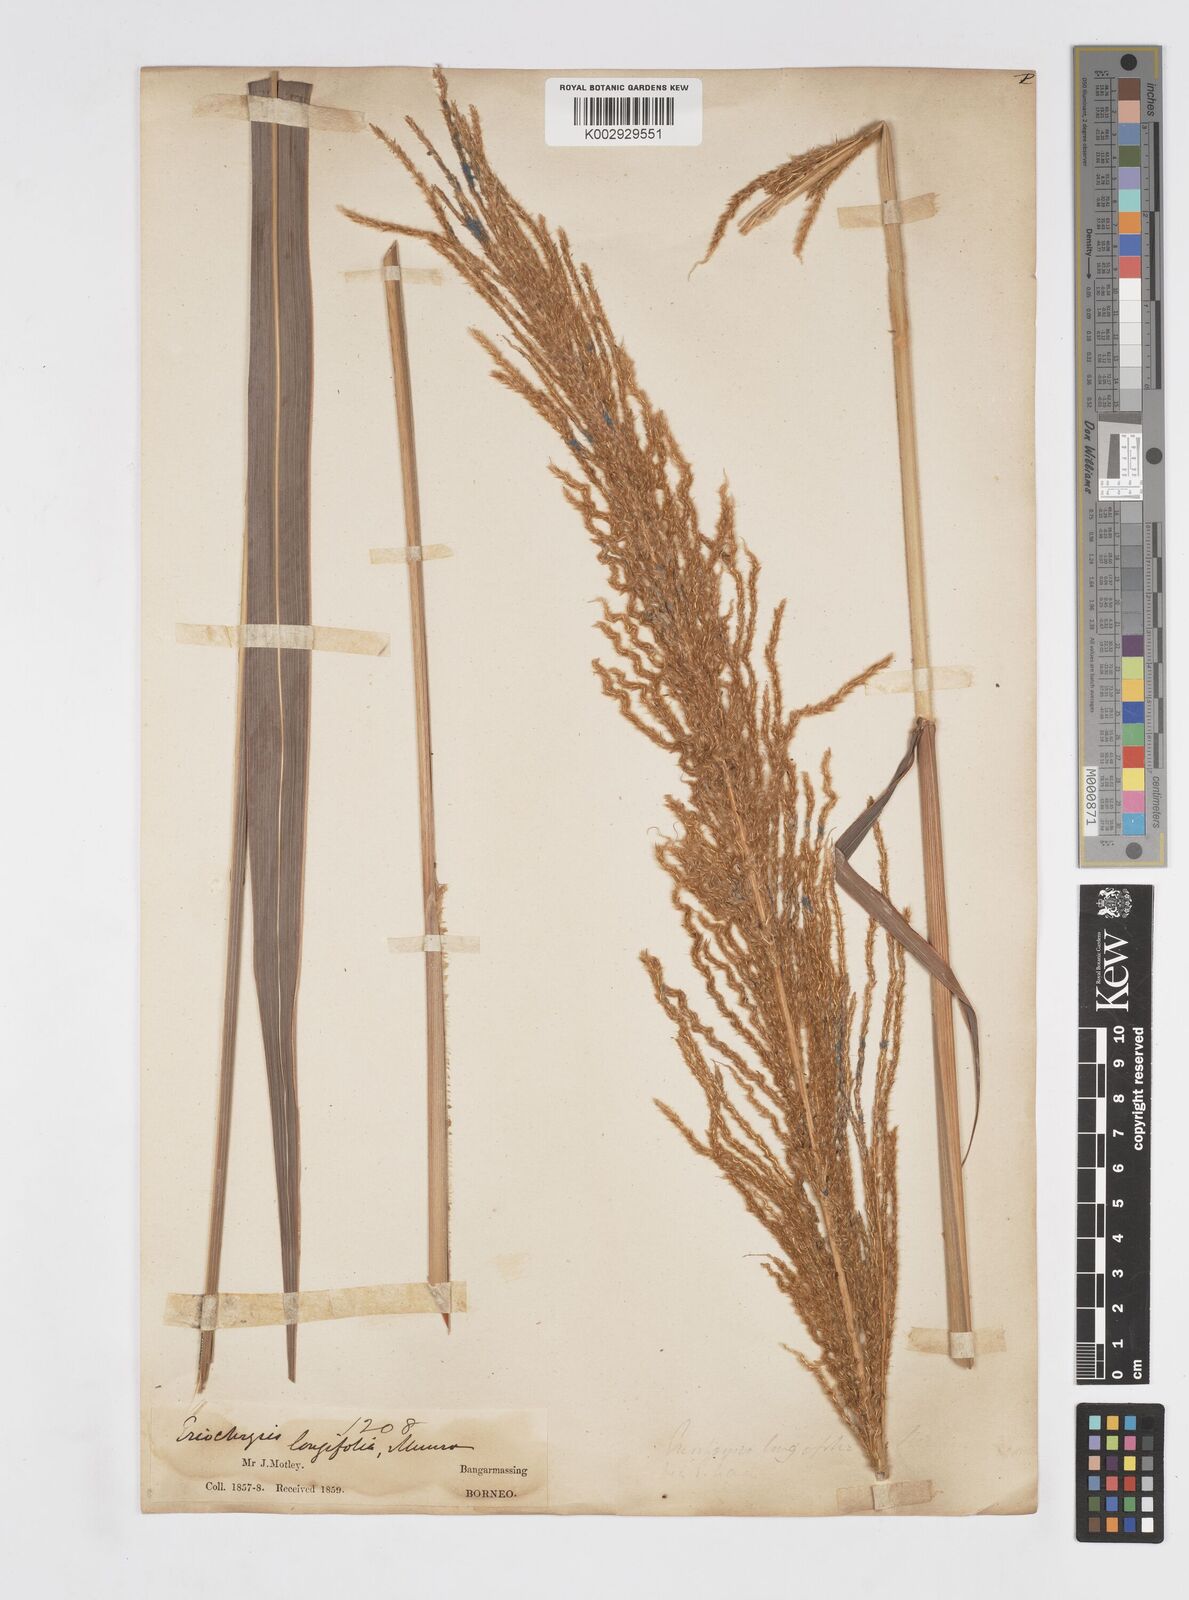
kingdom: Plantae
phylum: Tracheophyta
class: Liliopsida
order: Poales
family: Poaceae
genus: Saccharum
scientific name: Saccharum
